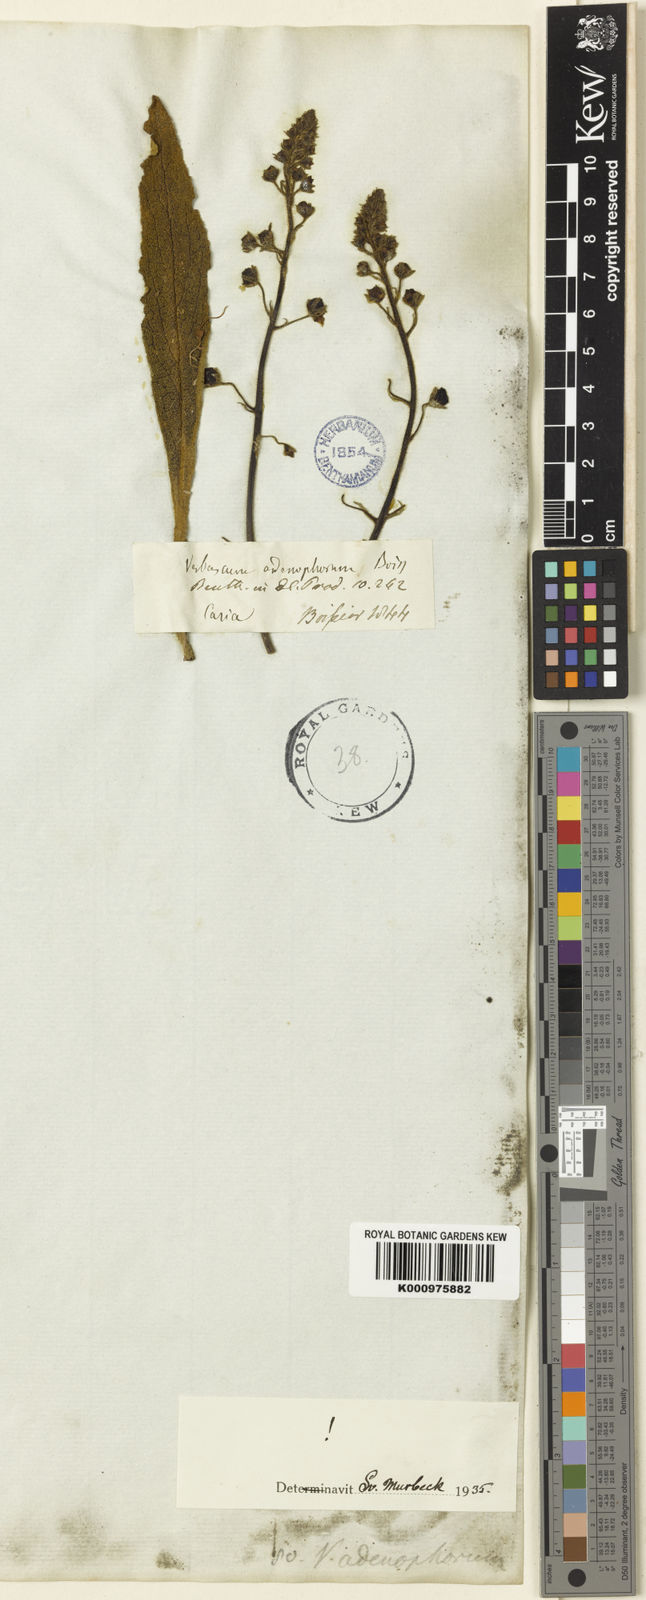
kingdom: Plantae
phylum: Tracheophyta
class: Magnoliopsida
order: Lamiales
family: Scrophulariaceae
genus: Verbascum
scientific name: Verbascum adenophorum
